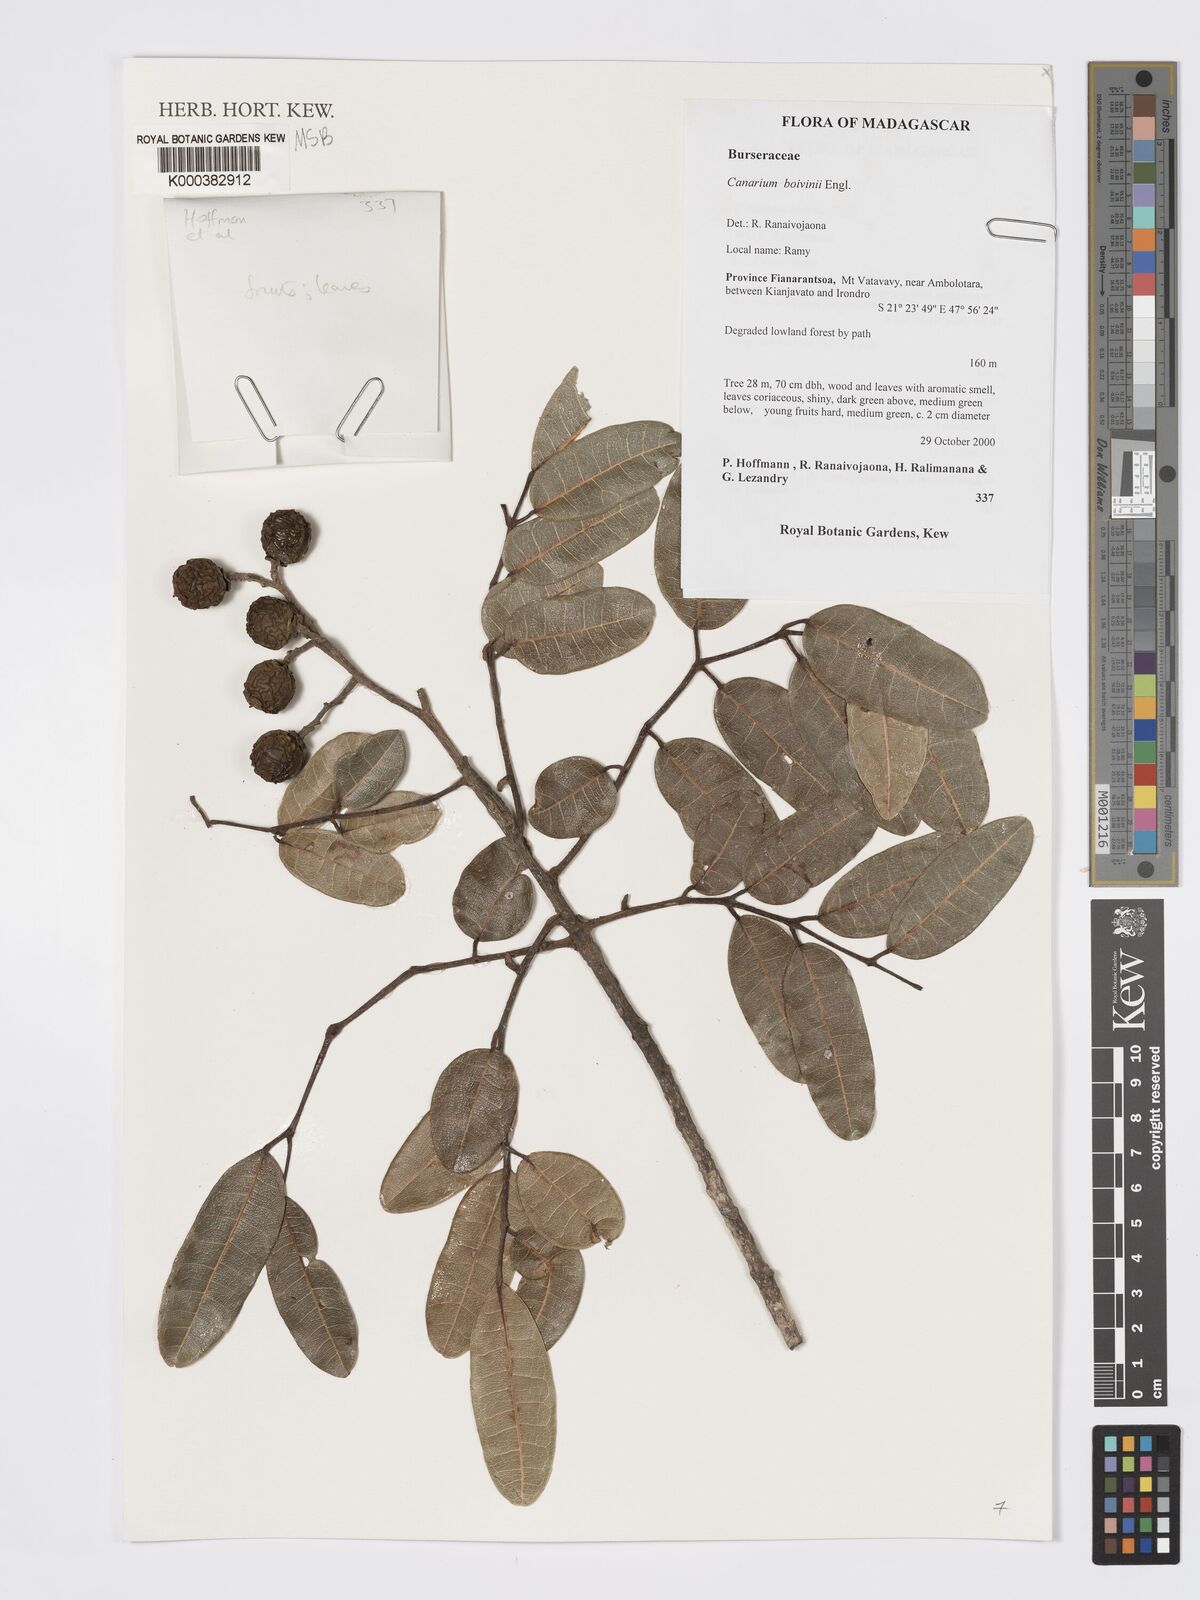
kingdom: Plantae
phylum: Tracheophyta
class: Magnoliopsida
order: Sapindales
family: Burseraceae
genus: Canarium
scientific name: Canarium madagascariense
